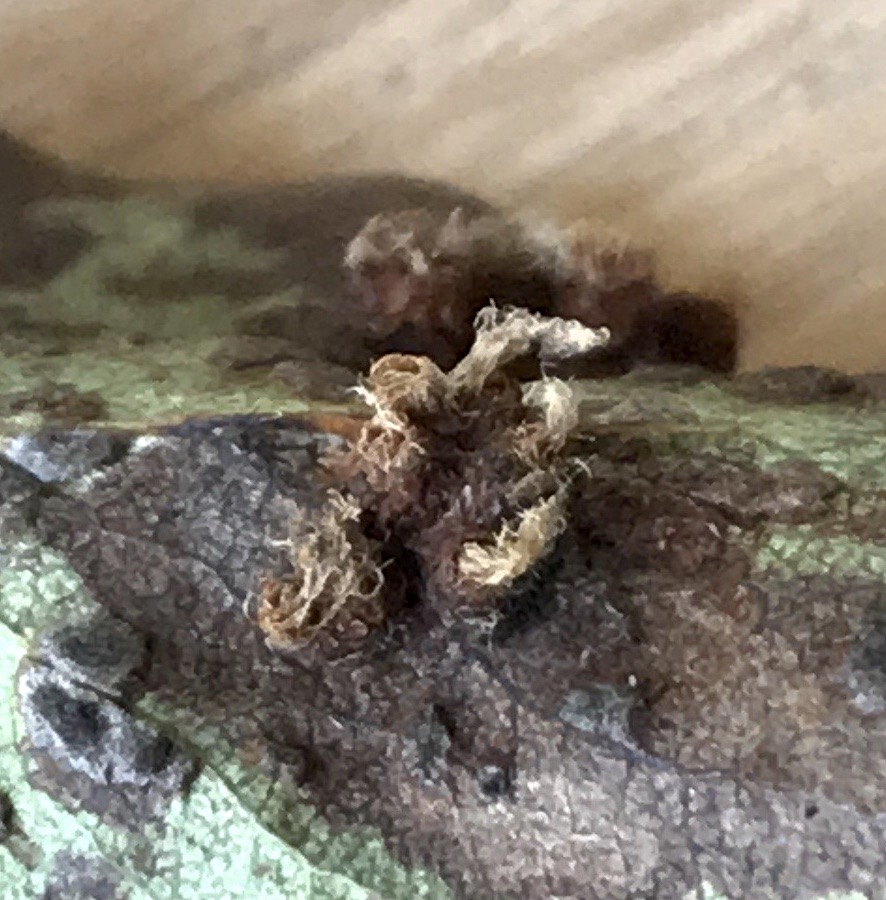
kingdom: Fungi
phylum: Basidiomycota
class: Pucciniomycetes
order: Pucciniales
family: Gymnosporangiaceae
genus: Gymnosporangium
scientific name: Gymnosporangium sabinae
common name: pæregitter-bævrerust
